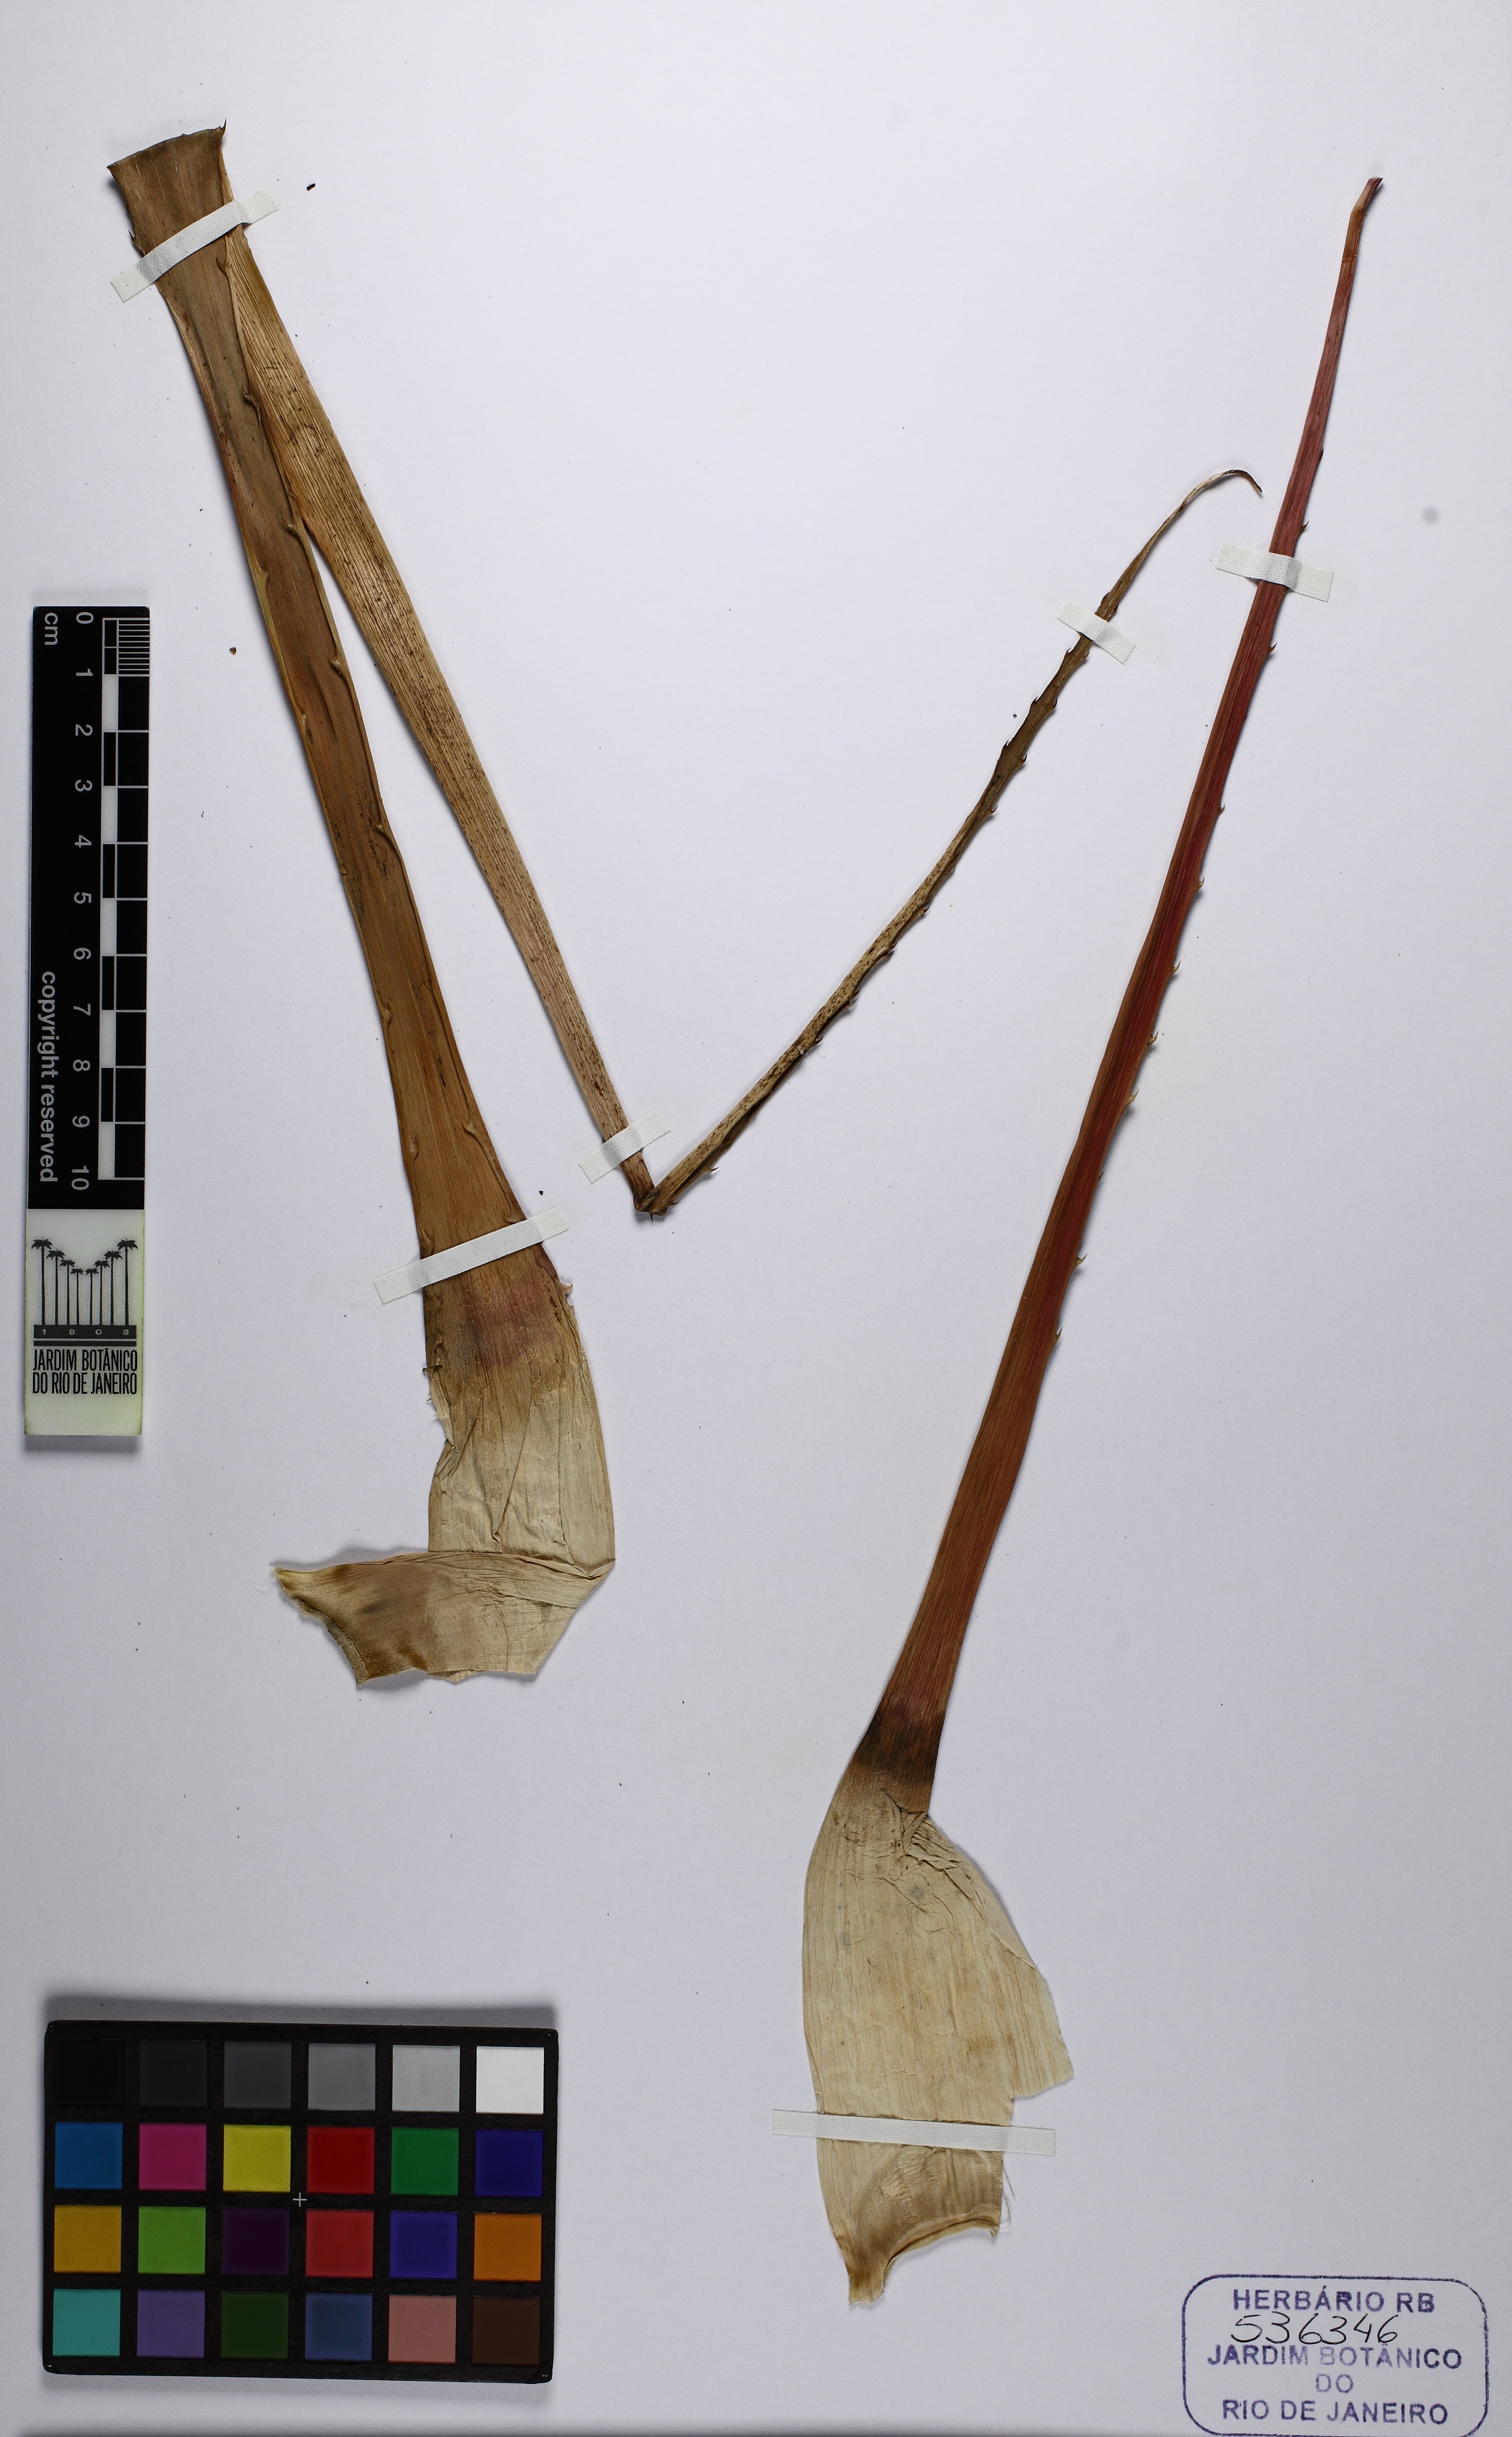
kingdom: Plantae
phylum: Tracheophyta
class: Liliopsida
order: Poales
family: Bromeliaceae
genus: Bromelia
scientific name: Bromelia balansae
